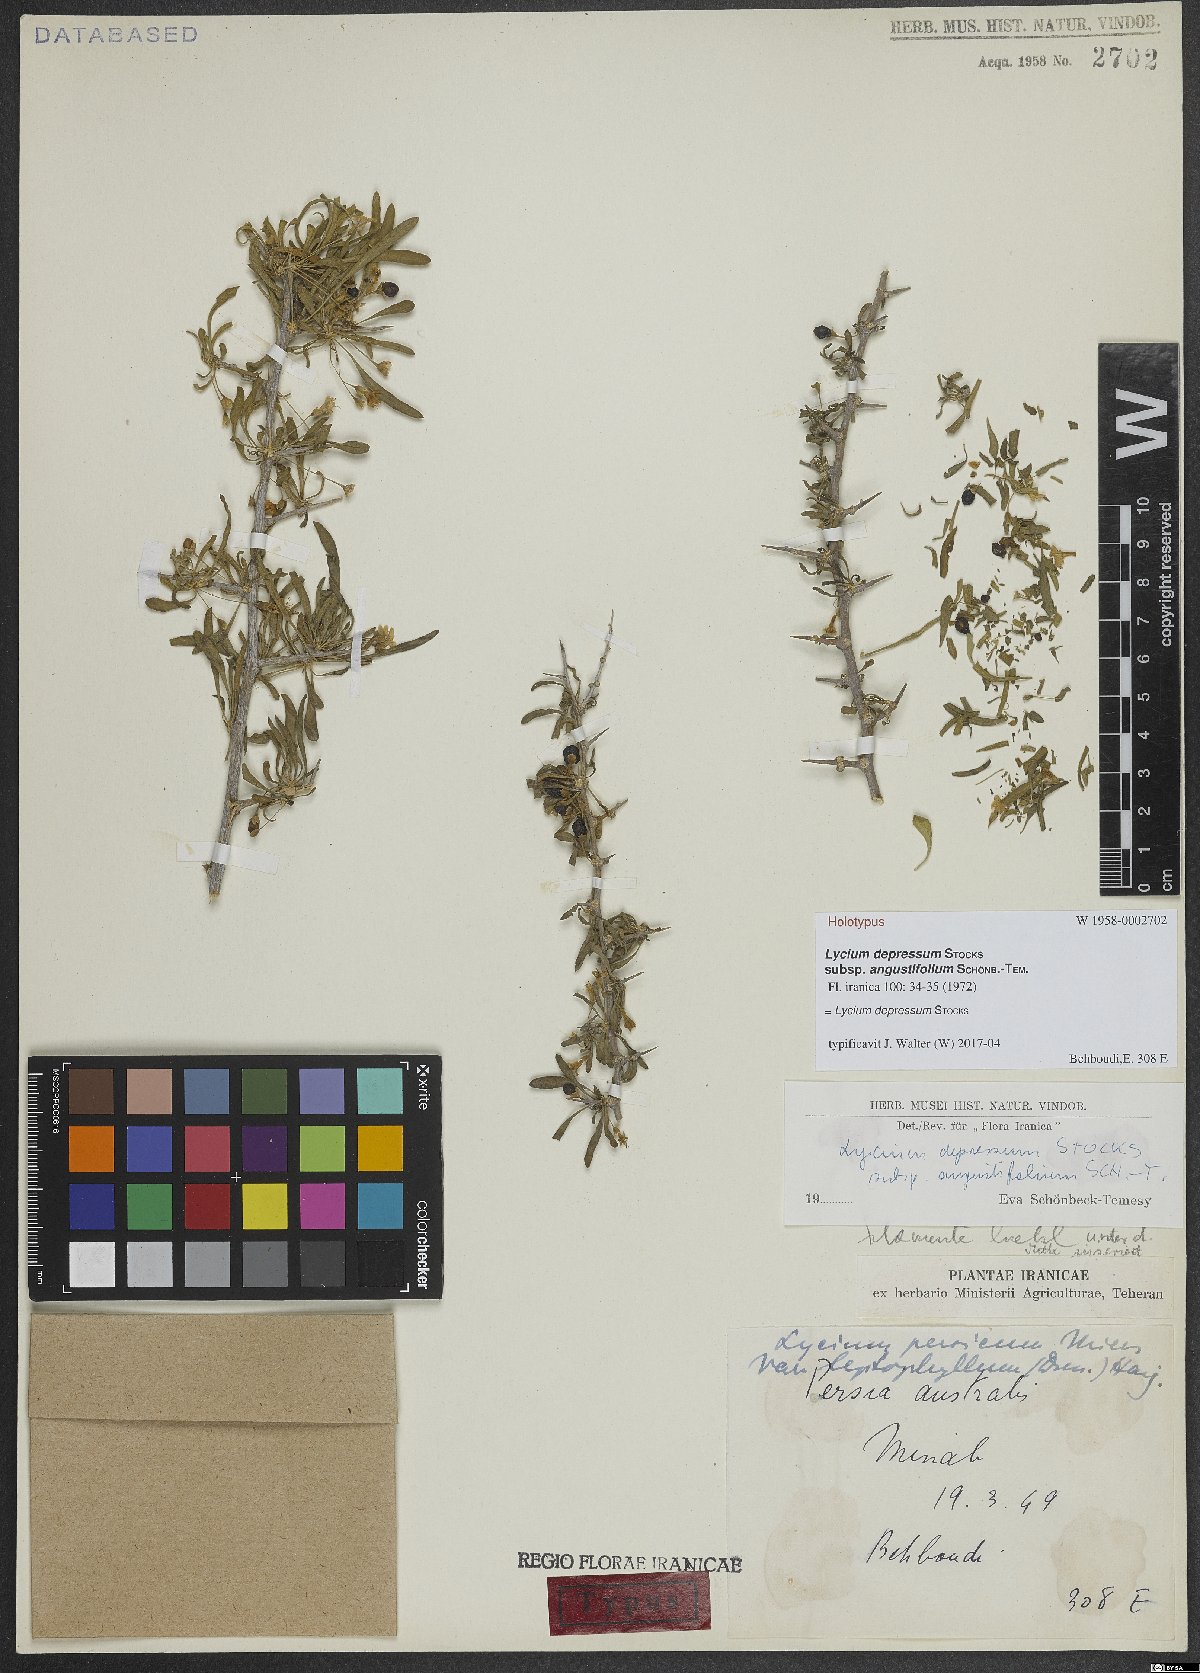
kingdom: Plantae
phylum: Tracheophyta
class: Magnoliopsida
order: Solanales
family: Solanaceae
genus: Lycium
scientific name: Lycium depressum
